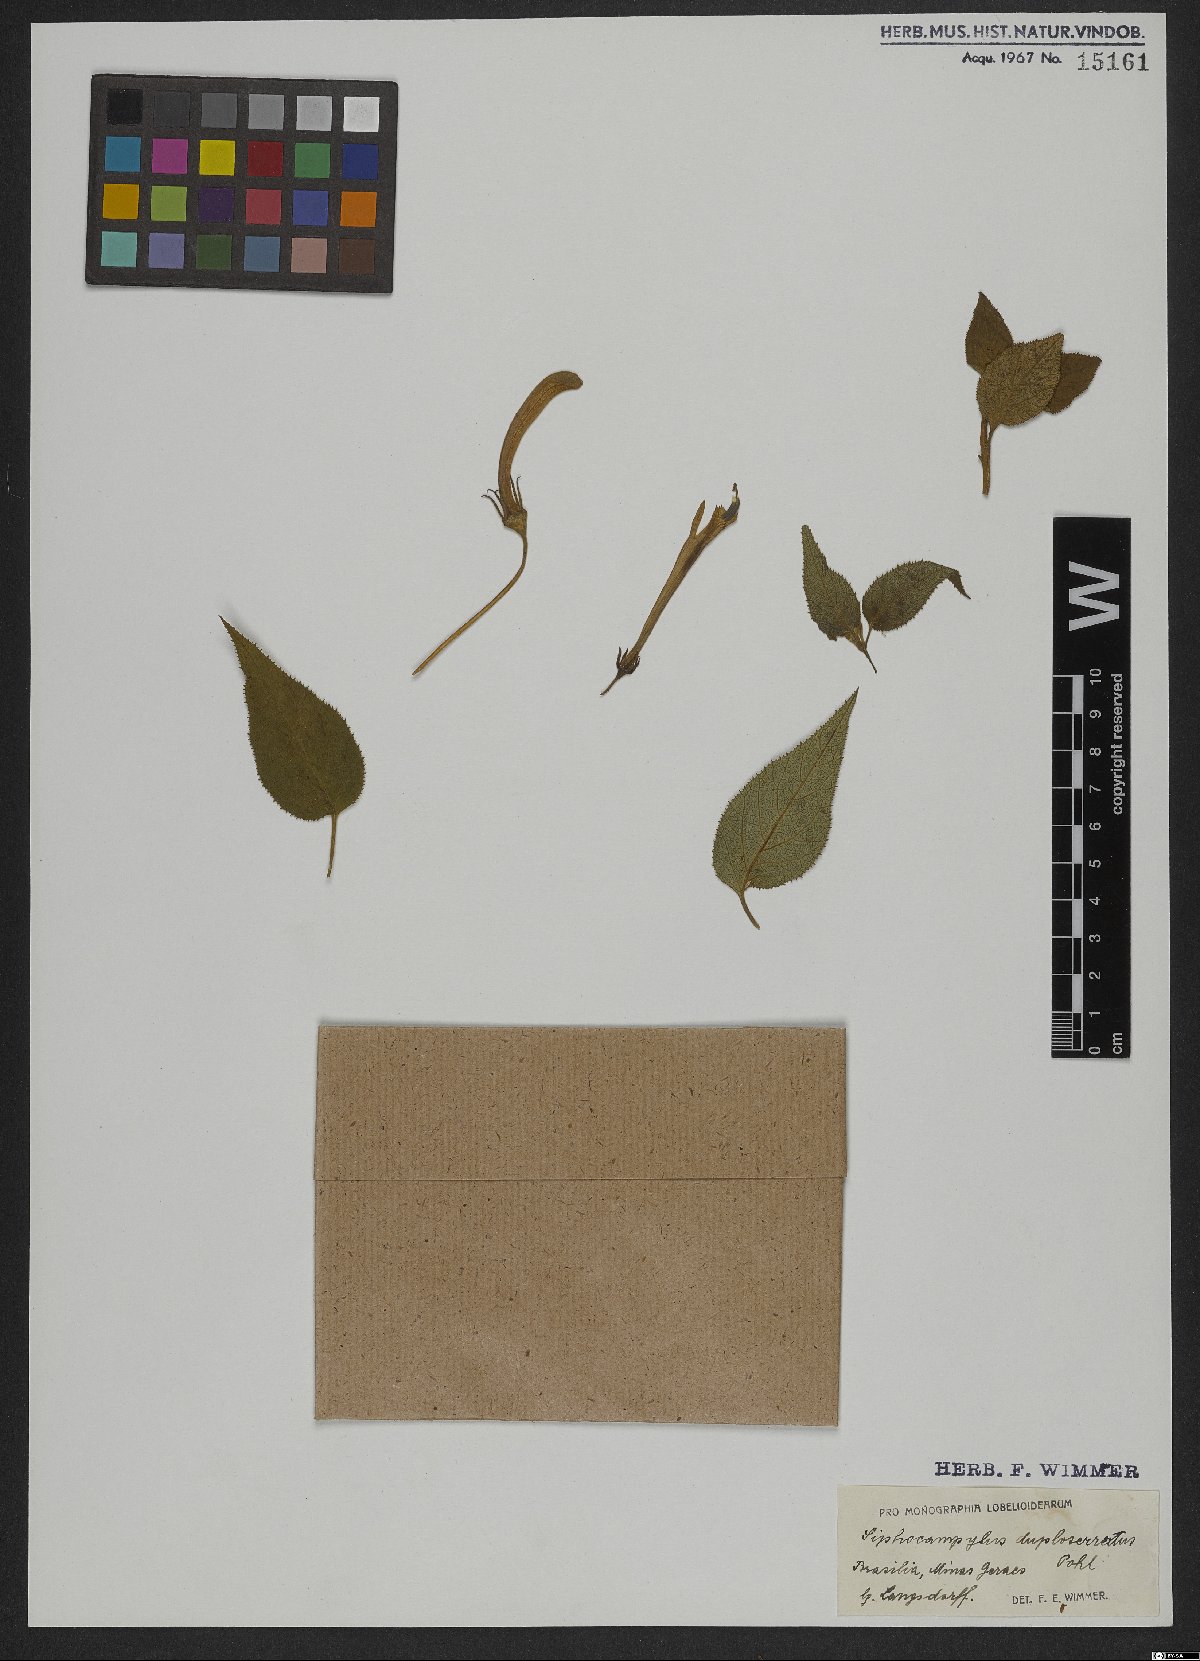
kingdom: Plantae
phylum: Tracheophyta
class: Magnoliopsida
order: Asterales
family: Campanulaceae
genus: Siphocampylus
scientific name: Siphocampylus duploserratus
